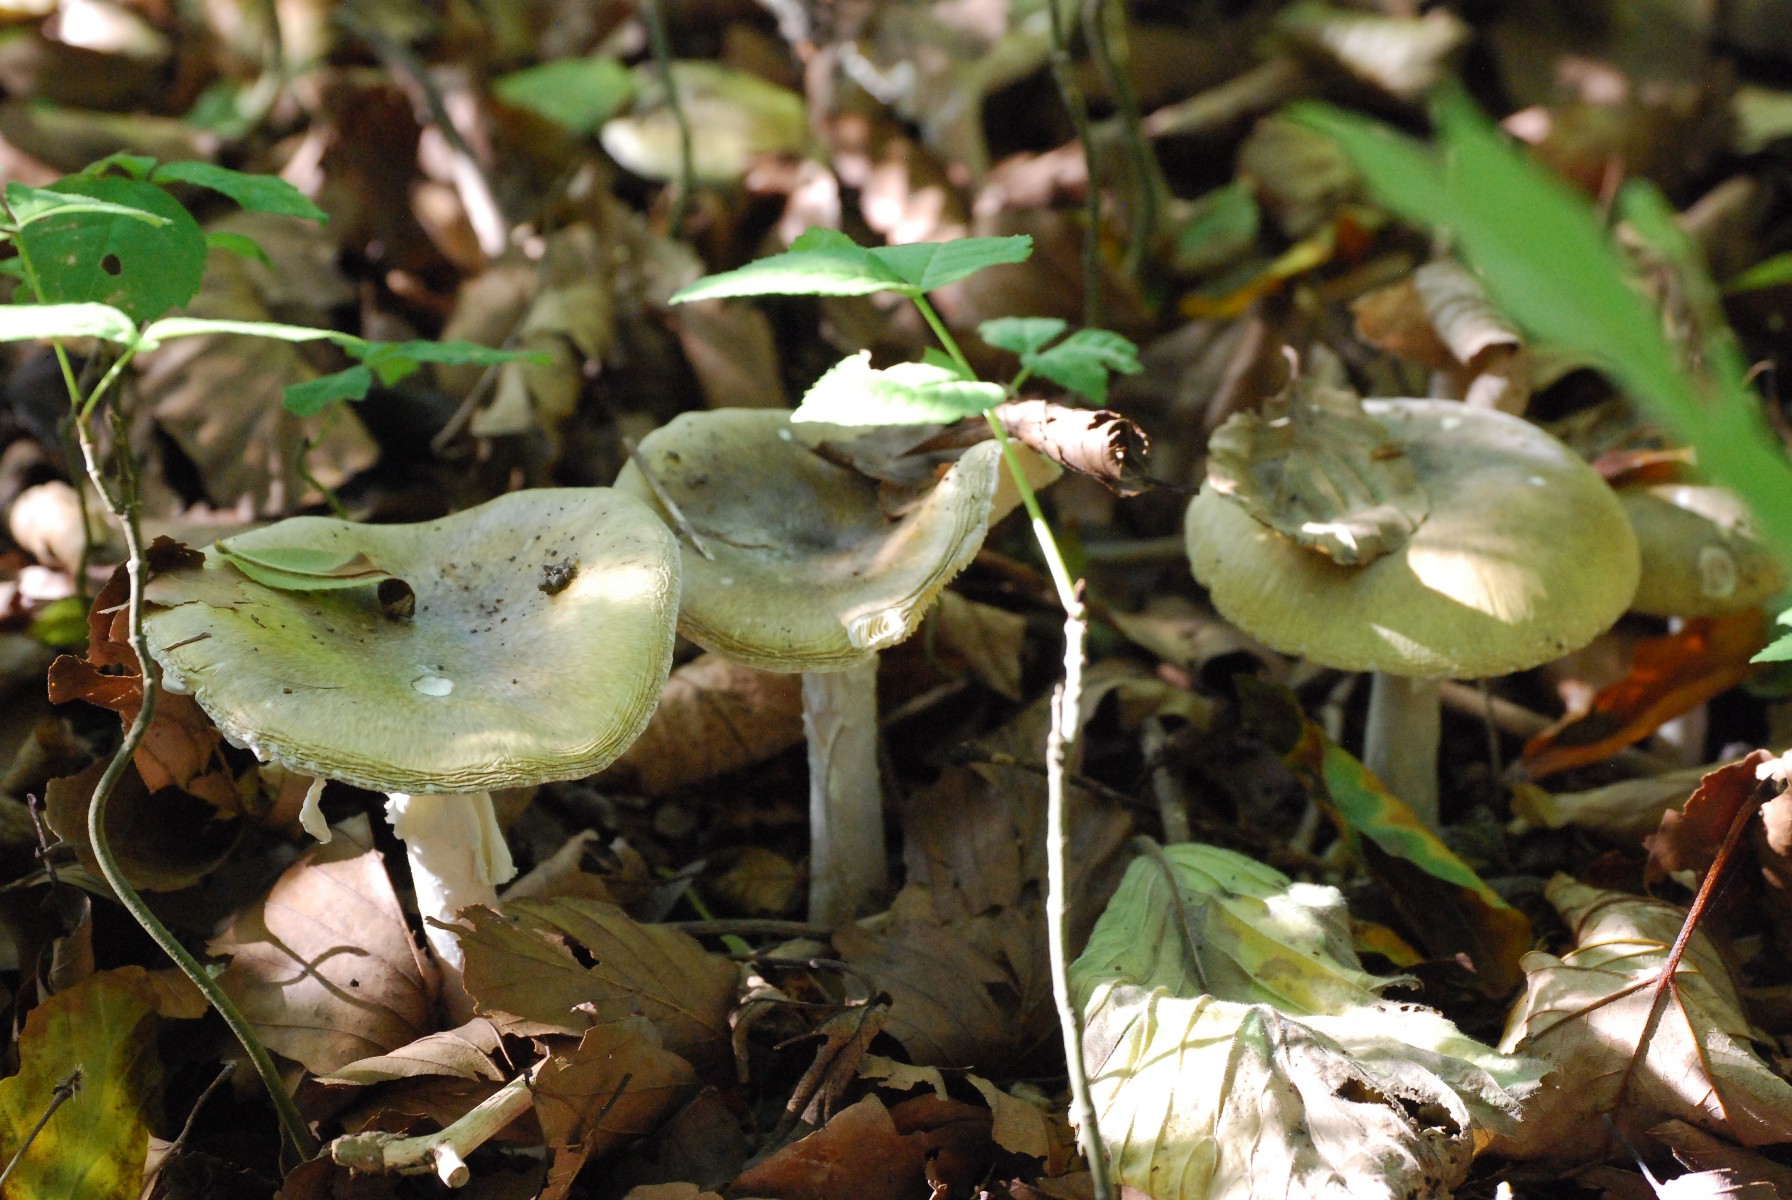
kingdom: Fungi
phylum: Basidiomycota
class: Agaricomycetes
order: Agaricales
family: Amanitaceae
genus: Amanita
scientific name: Amanita phalloides
